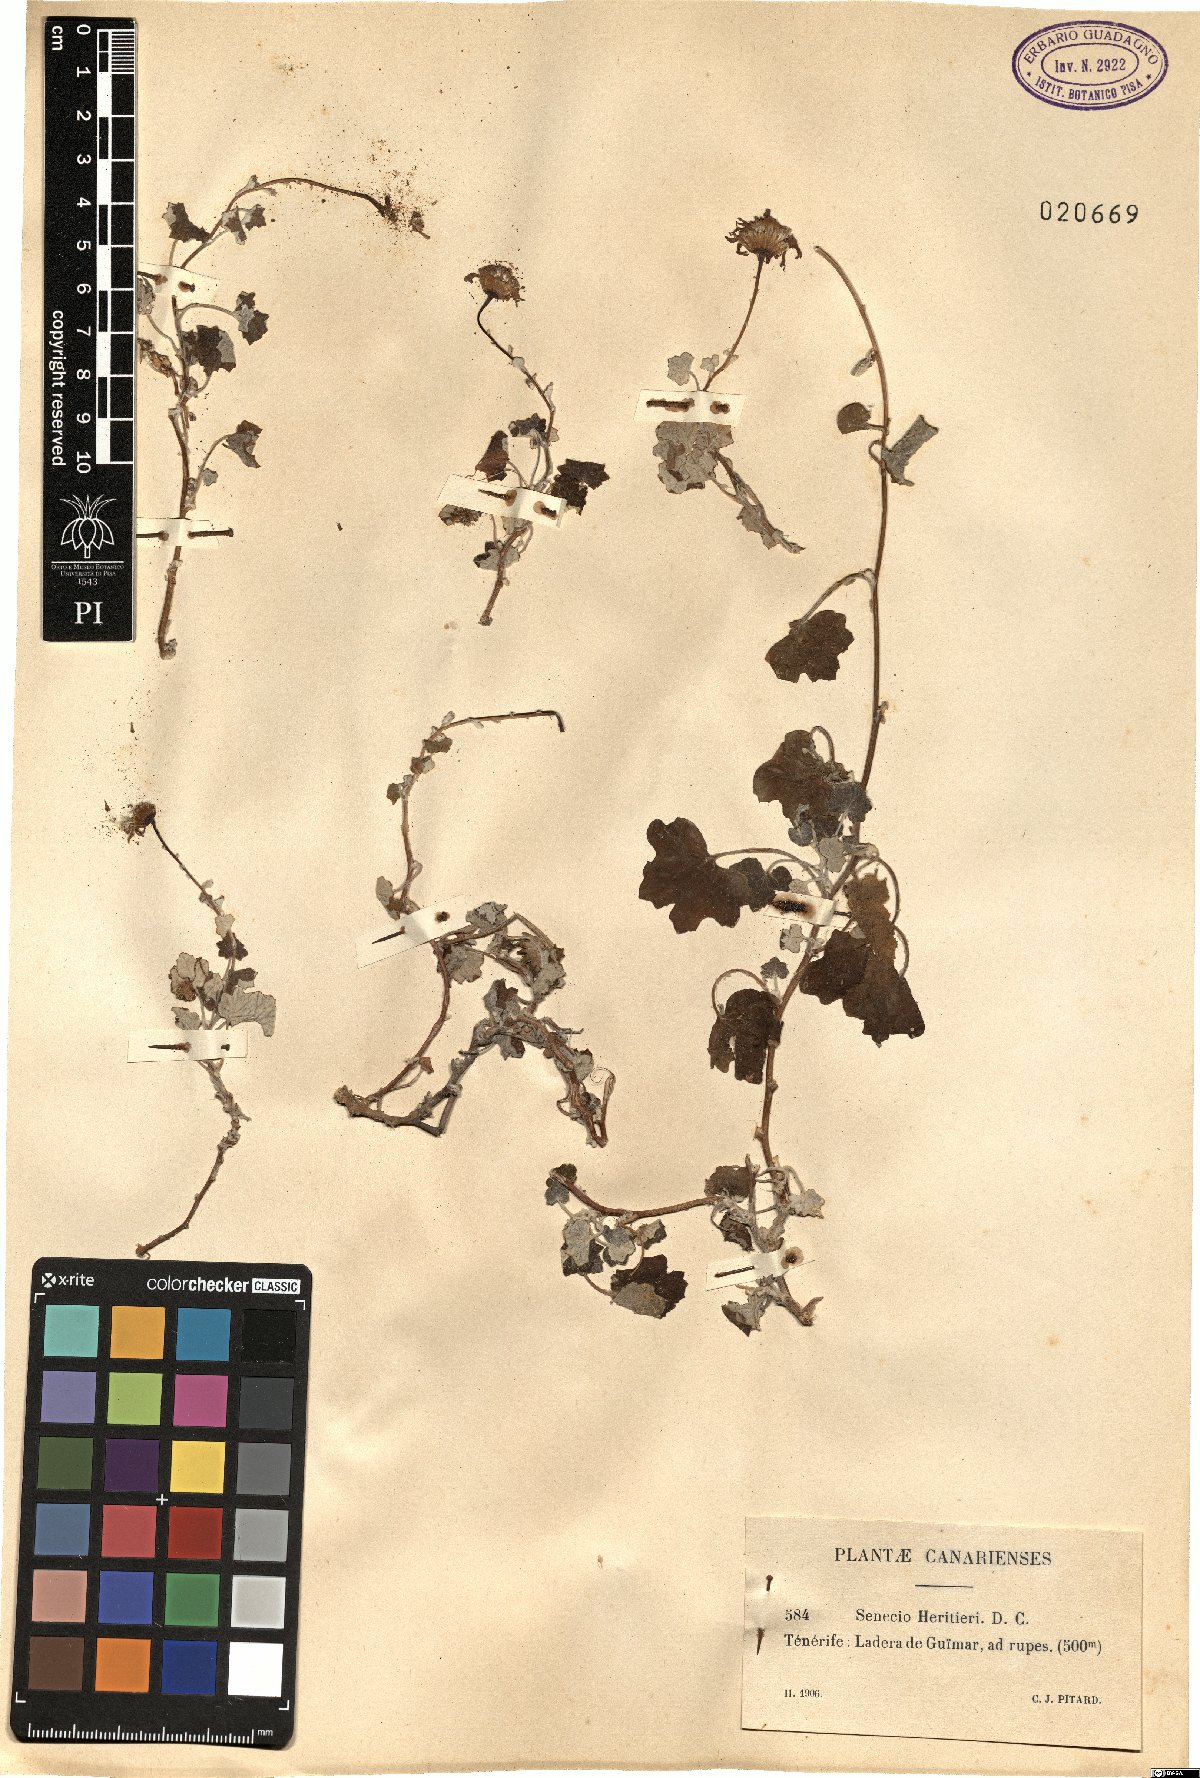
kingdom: Plantae
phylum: Tracheophyta
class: Magnoliopsida
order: Asterales
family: Asteraceae
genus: Pericallis
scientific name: Pericallis lanata
